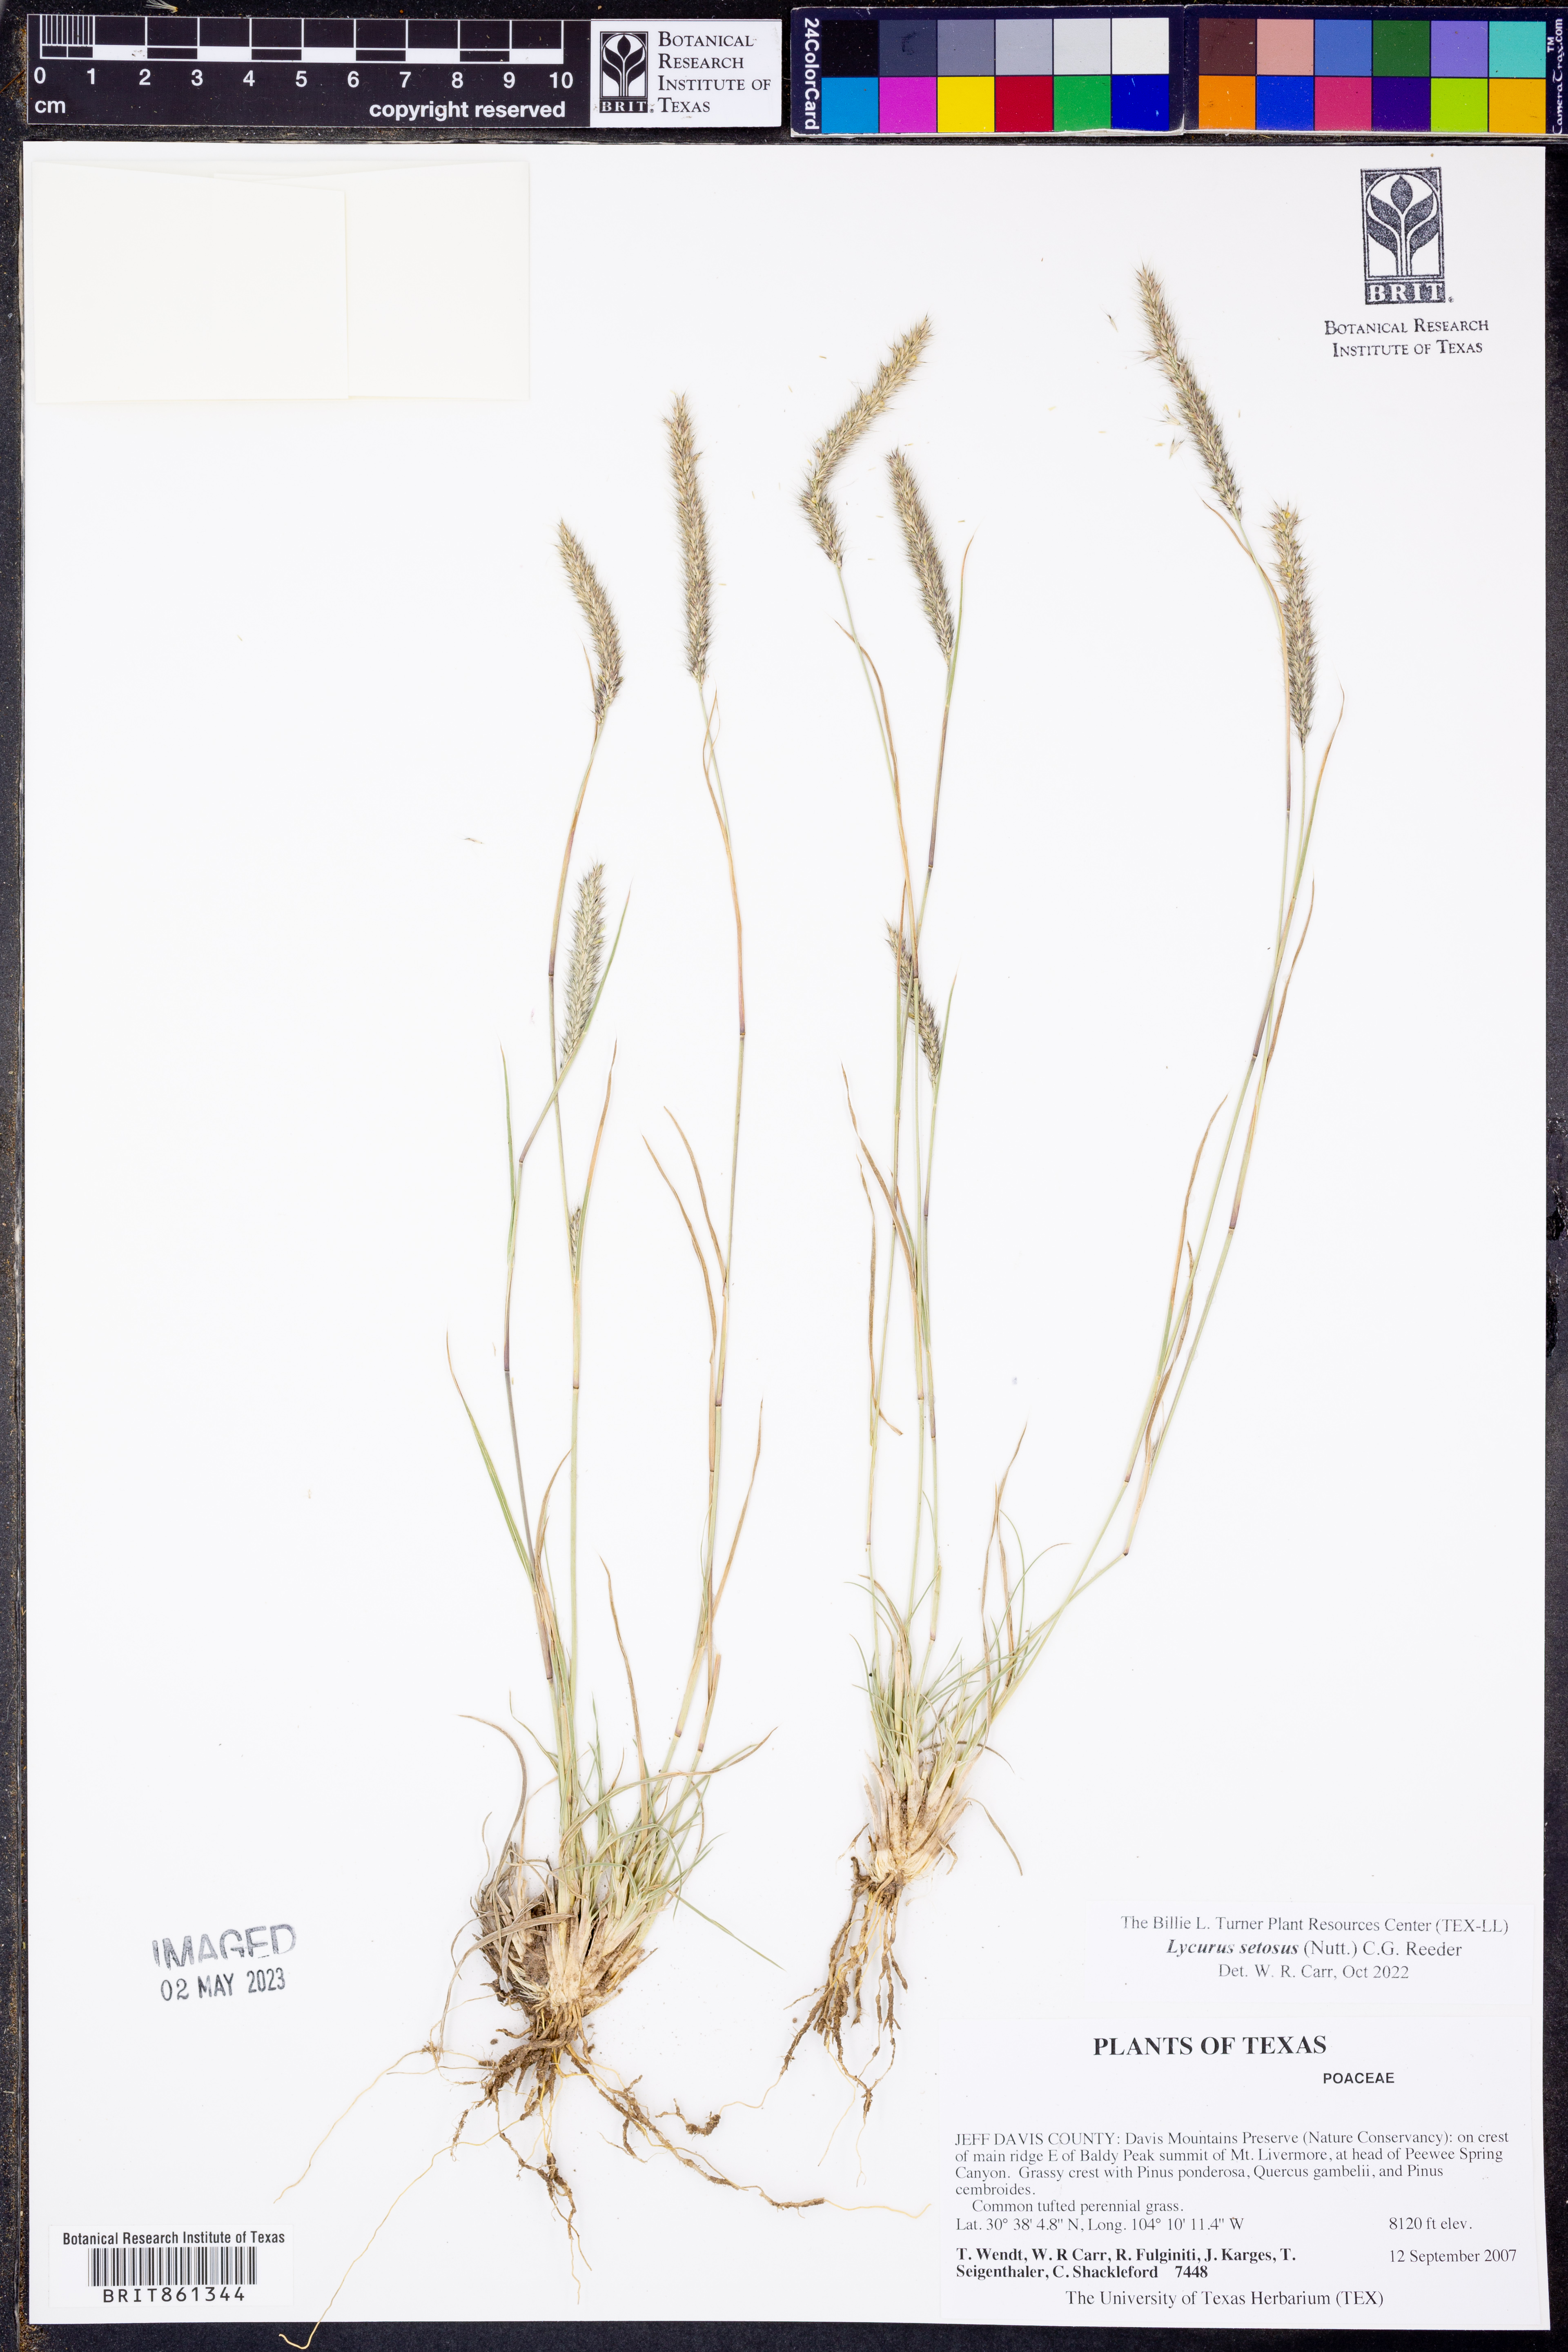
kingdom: Plantae
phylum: Tracheophyta
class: Liliopsida
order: Poales
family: Poaceae
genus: Muhlenbergia
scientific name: Muhlenbergia alopecuroides
